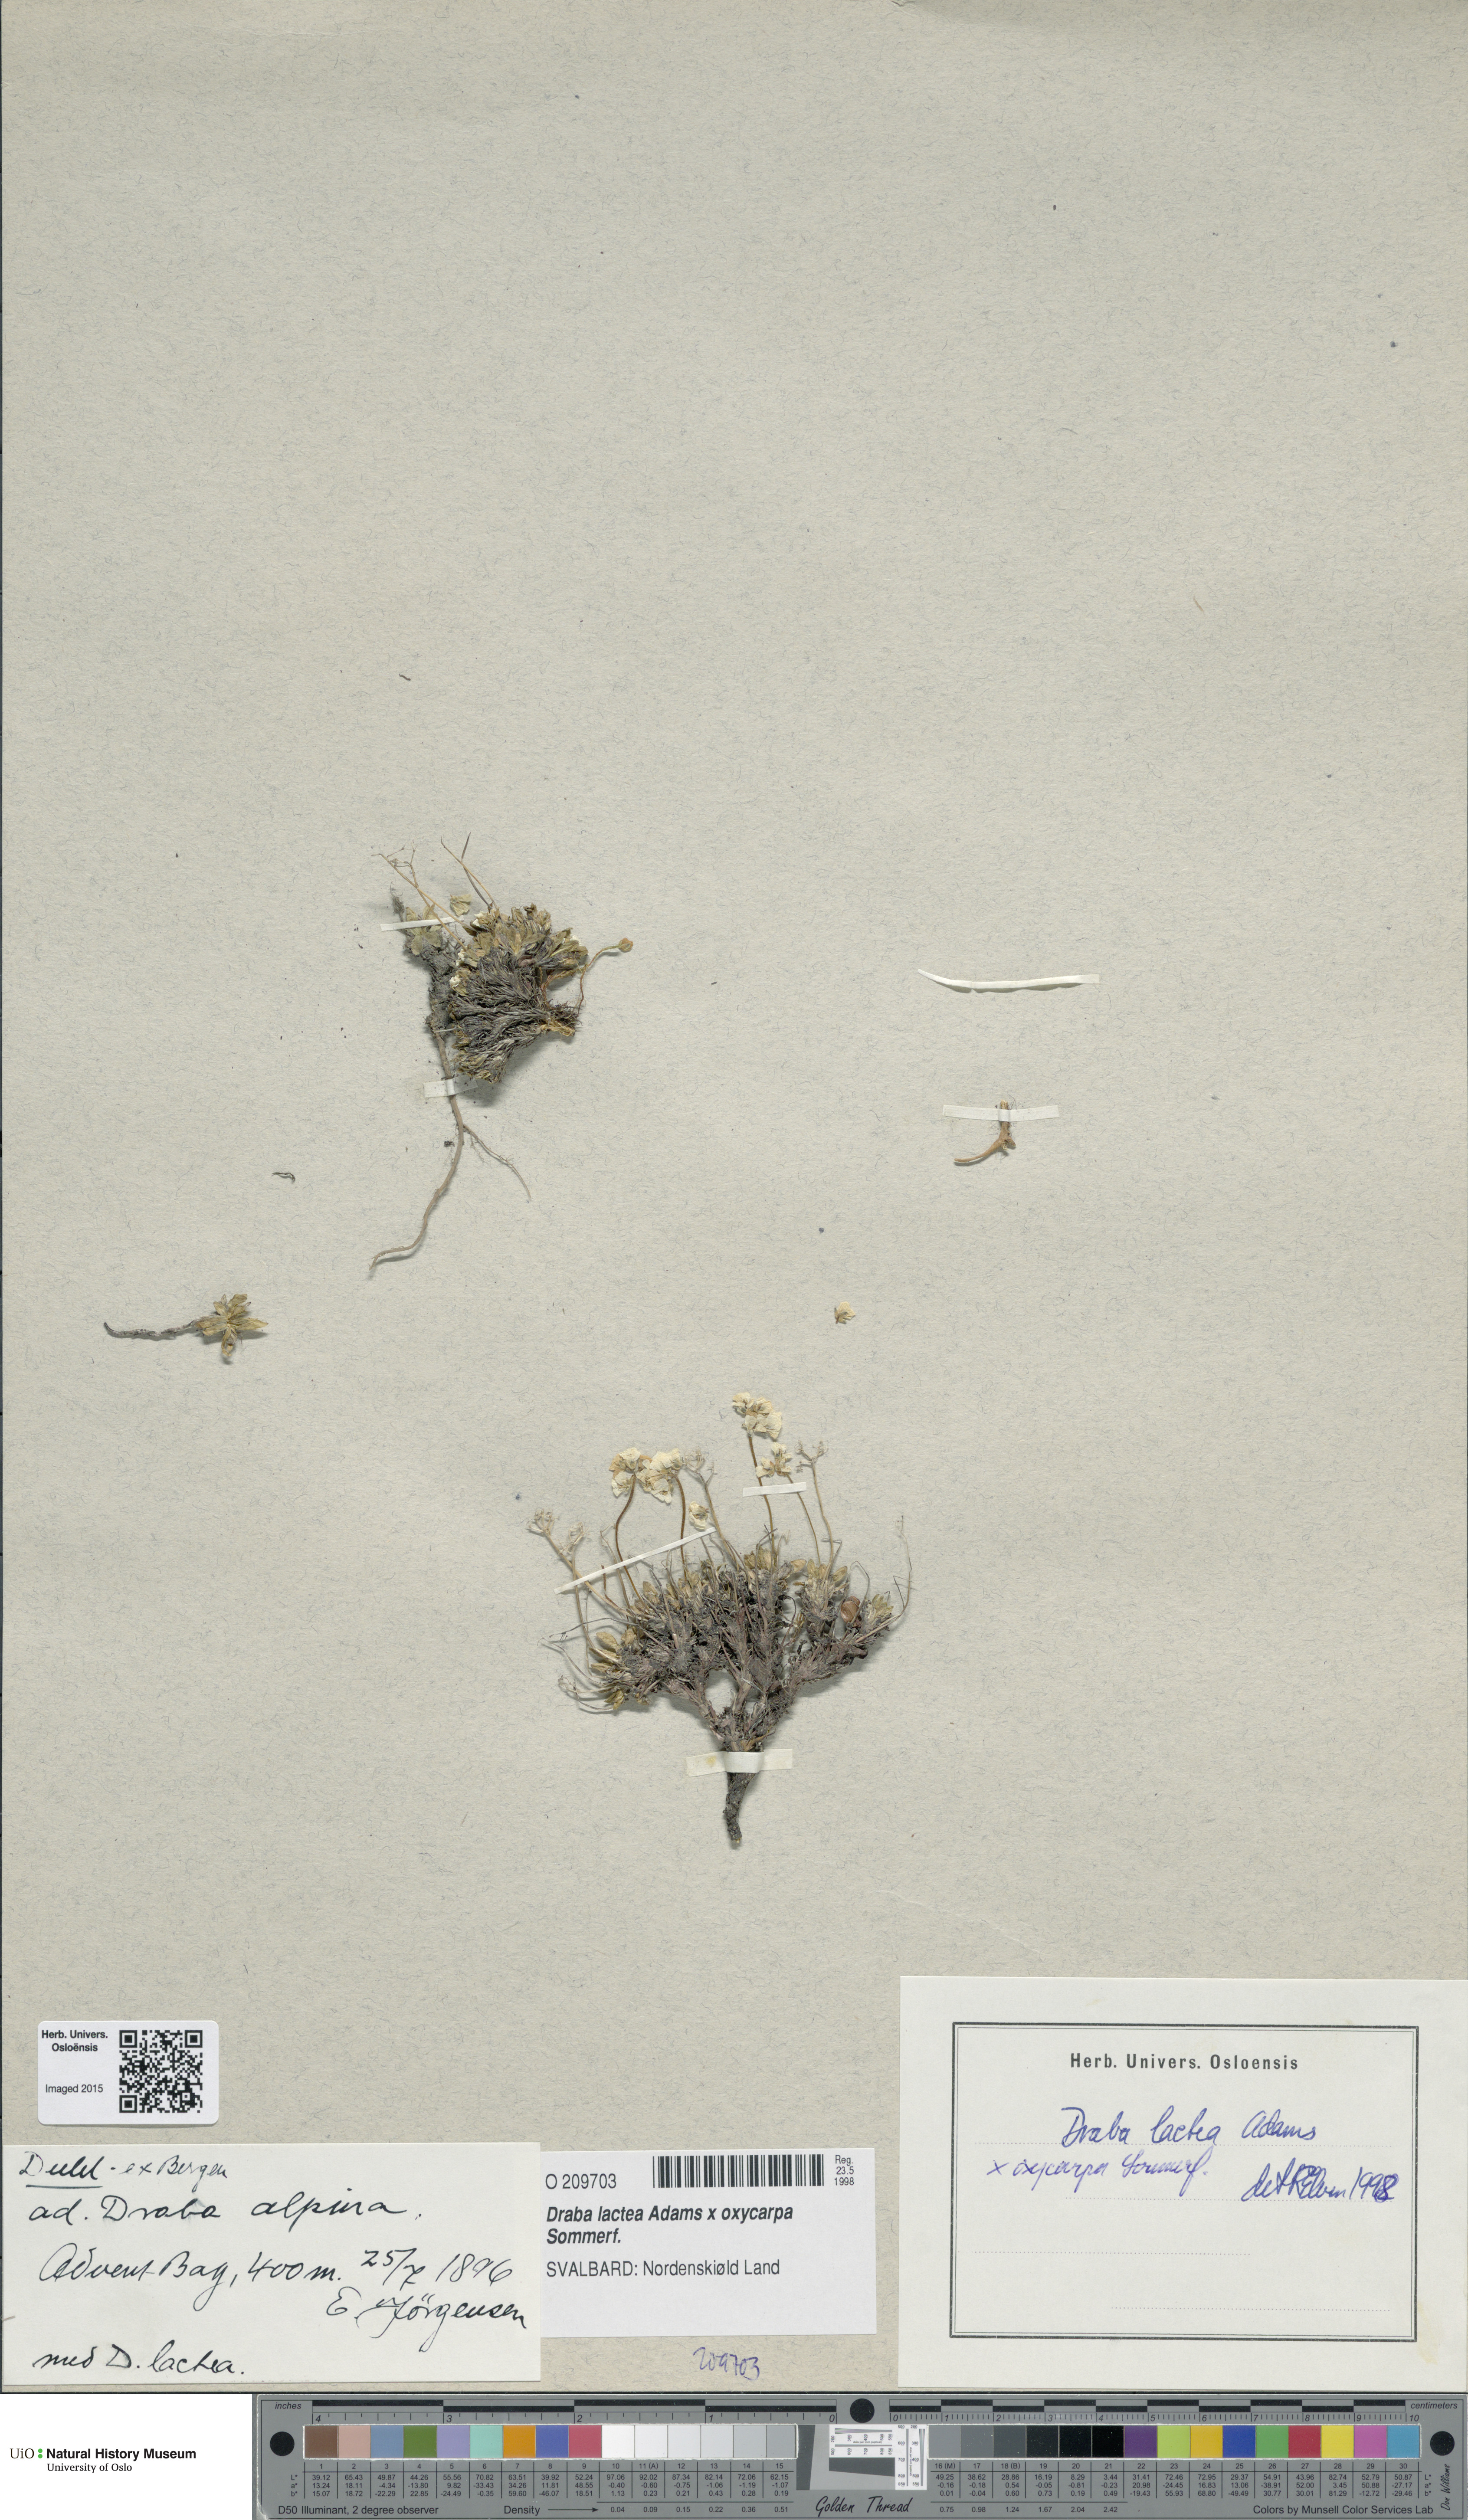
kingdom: Plantae
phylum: Tracheophyta
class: Magnoliopsida
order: Brassicales
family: Brassicaceae
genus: Draba
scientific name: Draba
